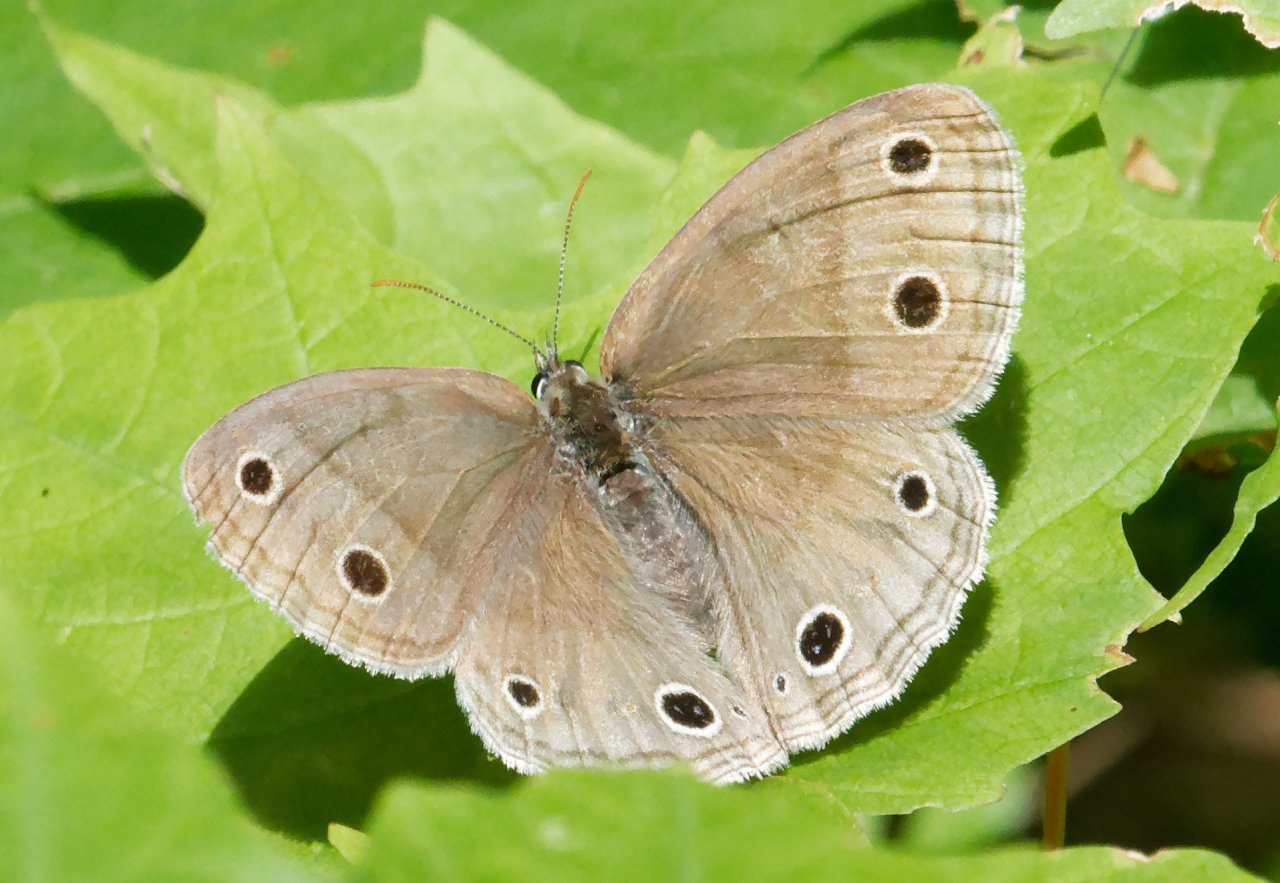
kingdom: Animalia
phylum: Arthropoda
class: Insecta
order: Lepidoptera
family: Nymphalidae
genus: Euptychia
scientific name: Euptychia cymela
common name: Little Wood Satyr
